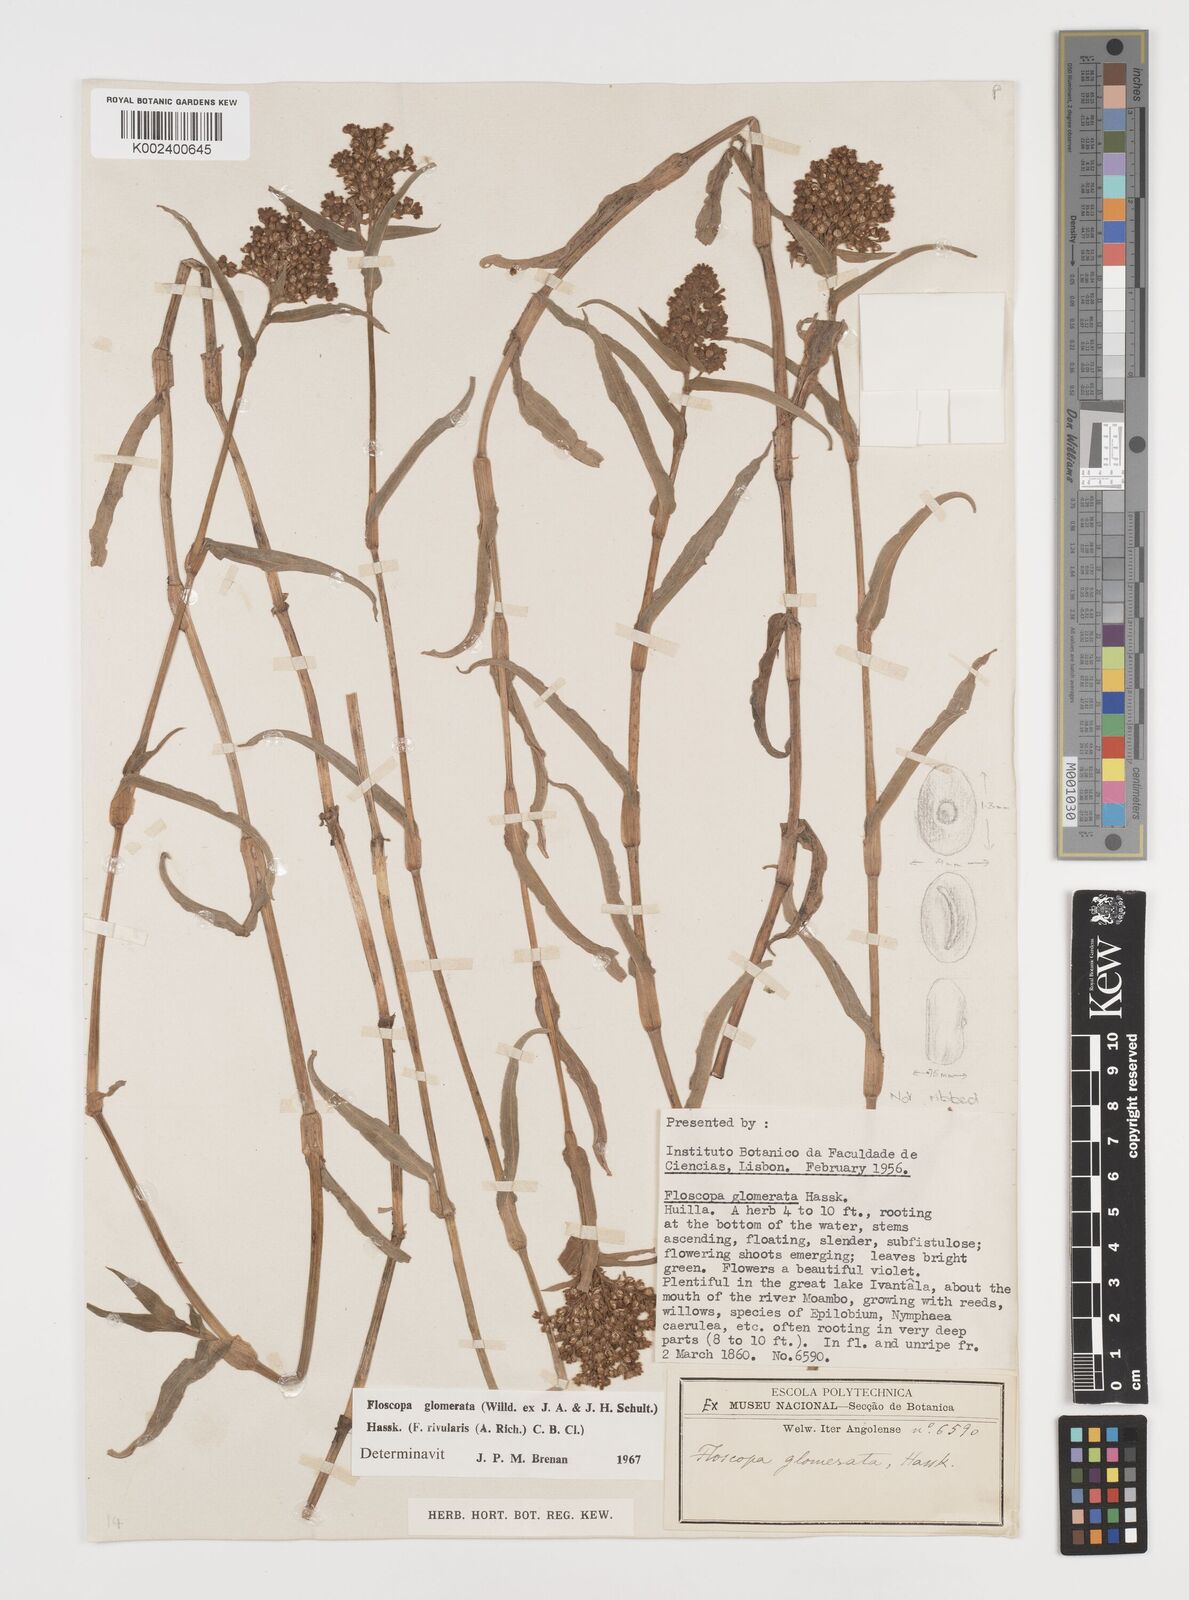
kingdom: Plantae
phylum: Tracheophyta
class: Liliopsida
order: Commelinales
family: Commelinaceae
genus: Floscopa
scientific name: Floscopa glomerata
